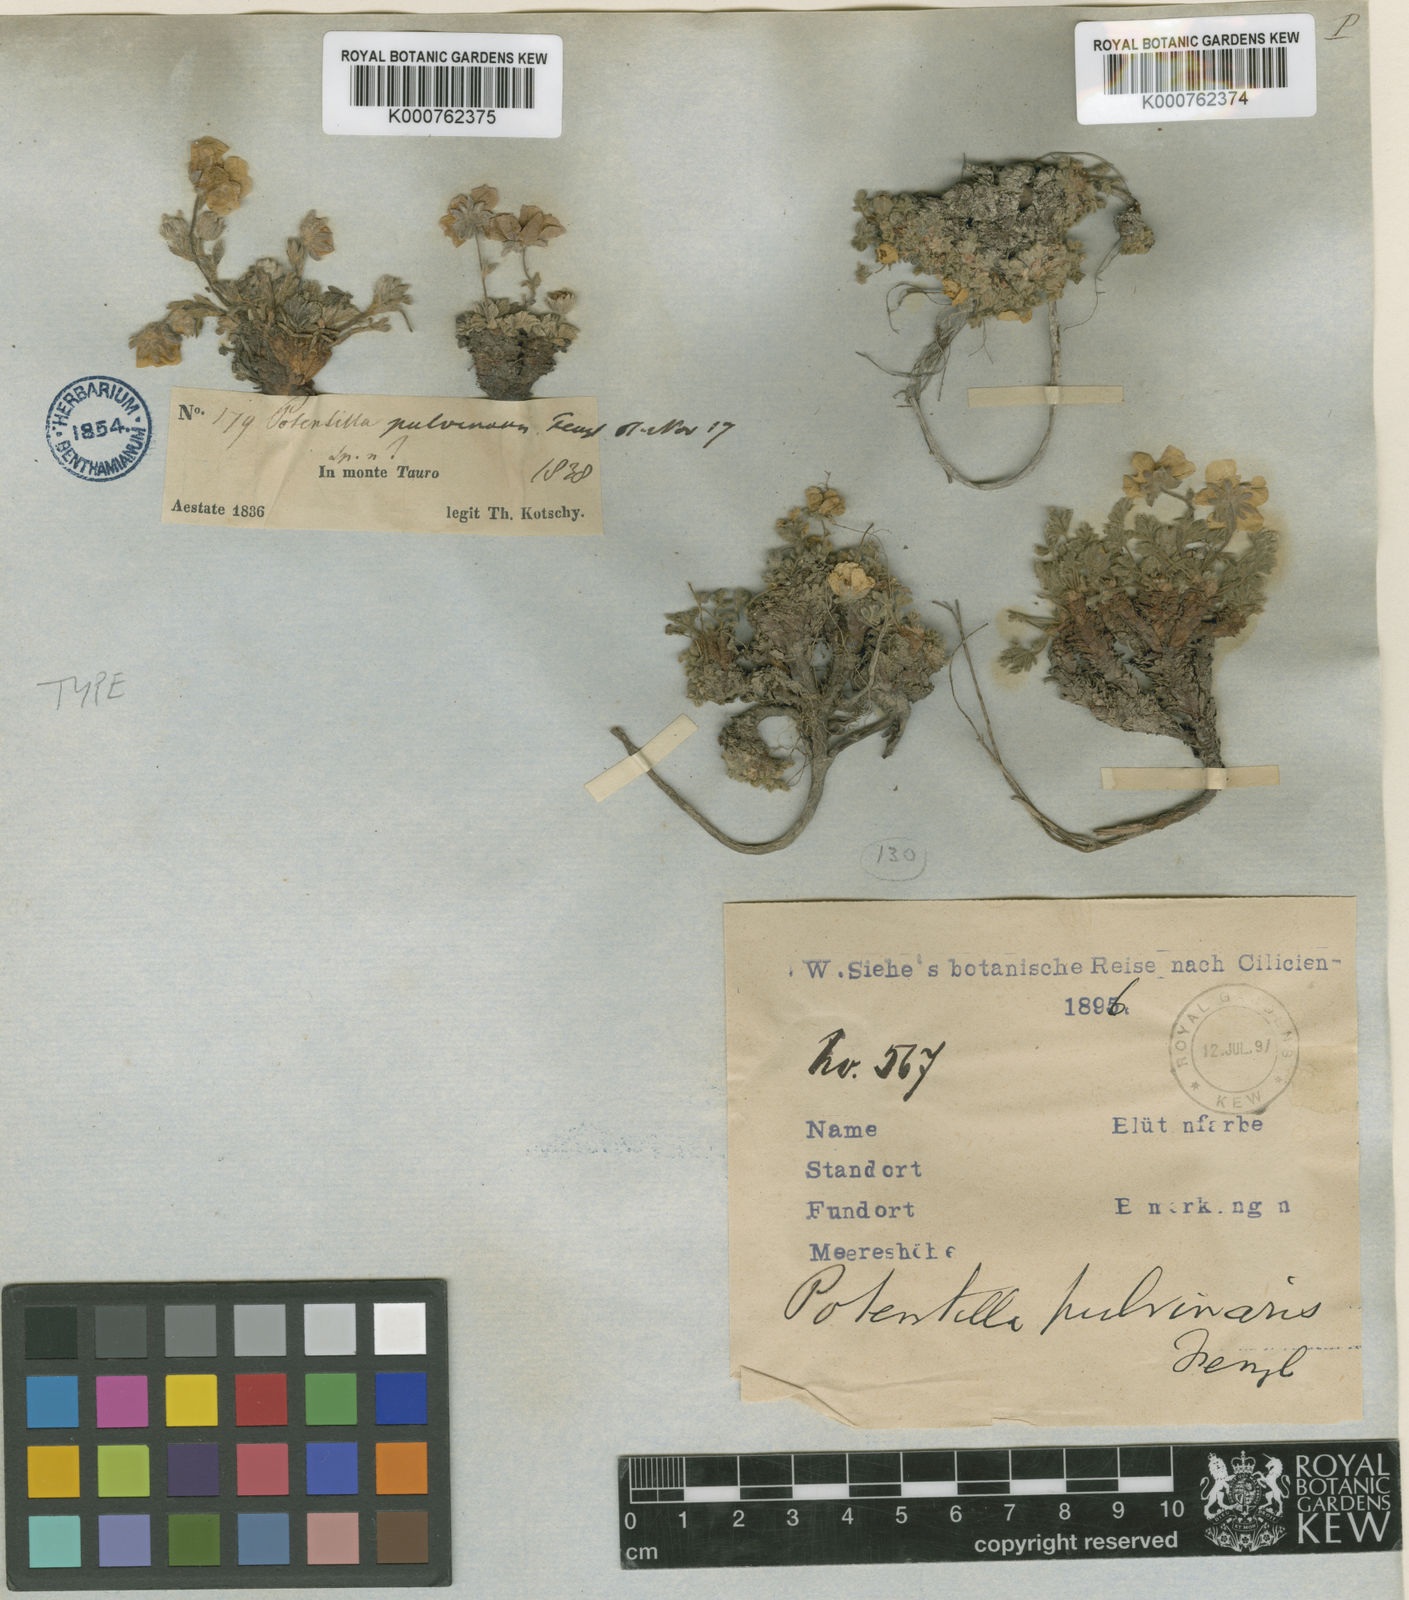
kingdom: Plantae
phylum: Tracheophyta
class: Magnoliopsida
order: Rosales
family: Rosaceae
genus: Potentilla
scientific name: Potentilla pulvinaris
